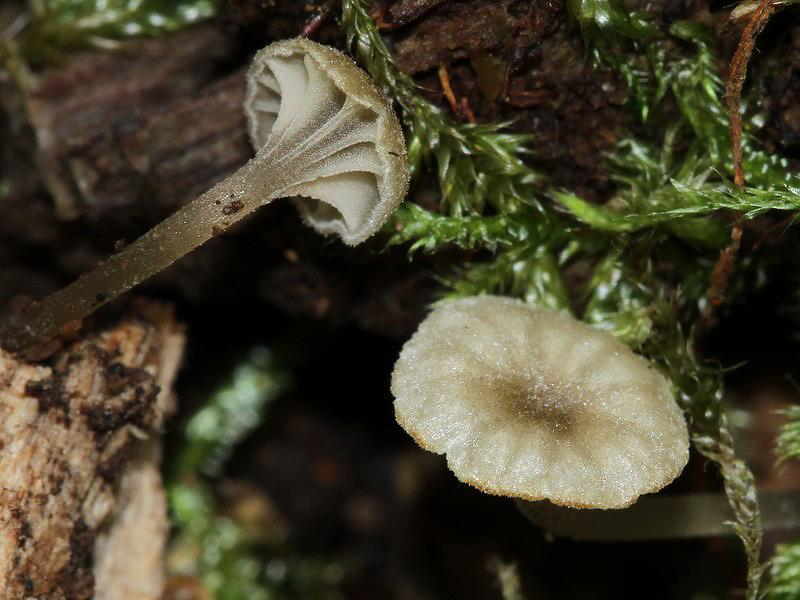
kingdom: Fungi
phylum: Basidiomycota
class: Agaricomycetes
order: Agaricales
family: Entolomataceae
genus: Entoloma
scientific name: Entoloma rhodocylix
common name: fjernbladet rødblad
